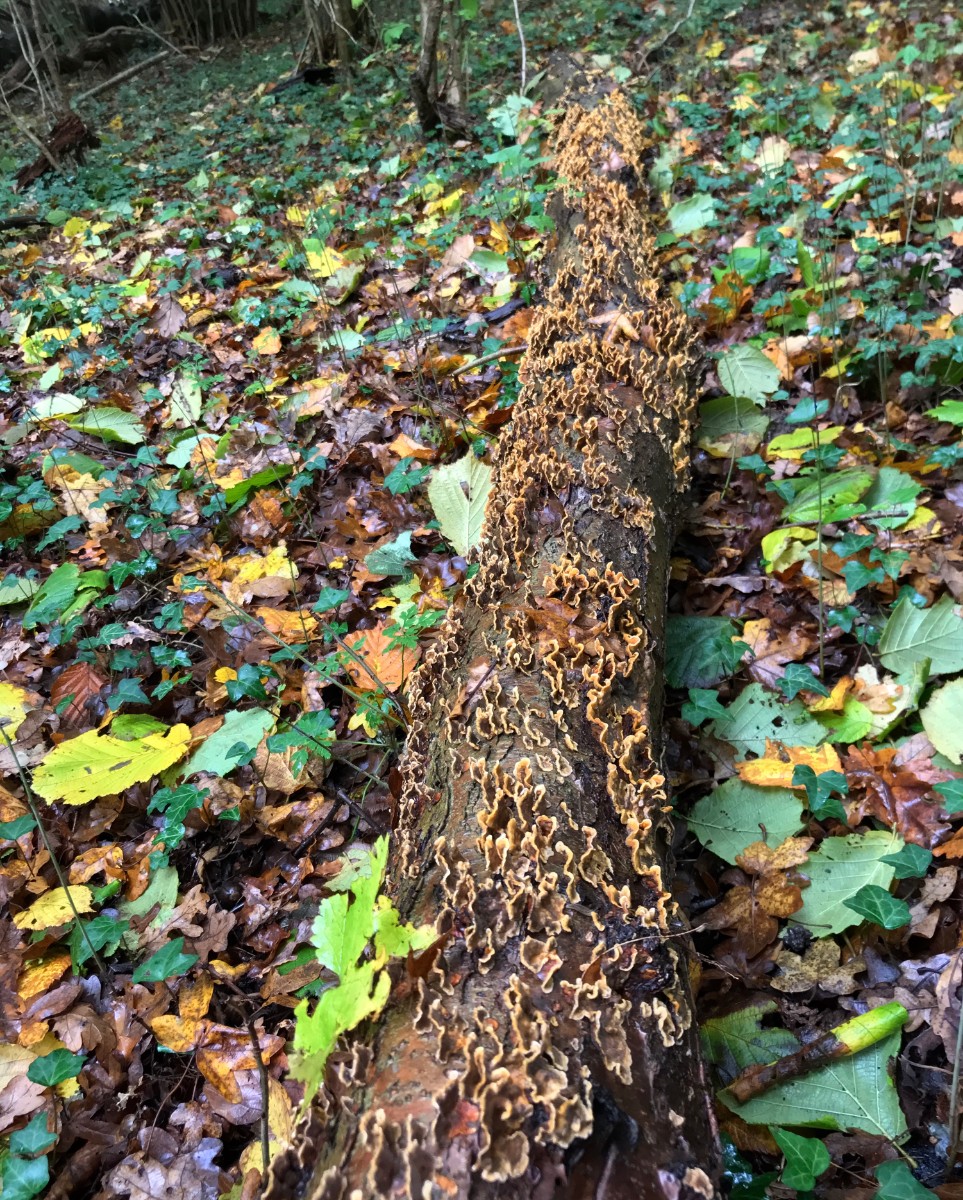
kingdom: Fungi
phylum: Basidiomycota
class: Agaricomycetes
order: Russulales
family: Stereaceae
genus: Stereum
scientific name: Stereum hirsutum
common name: håret lædersvamp
